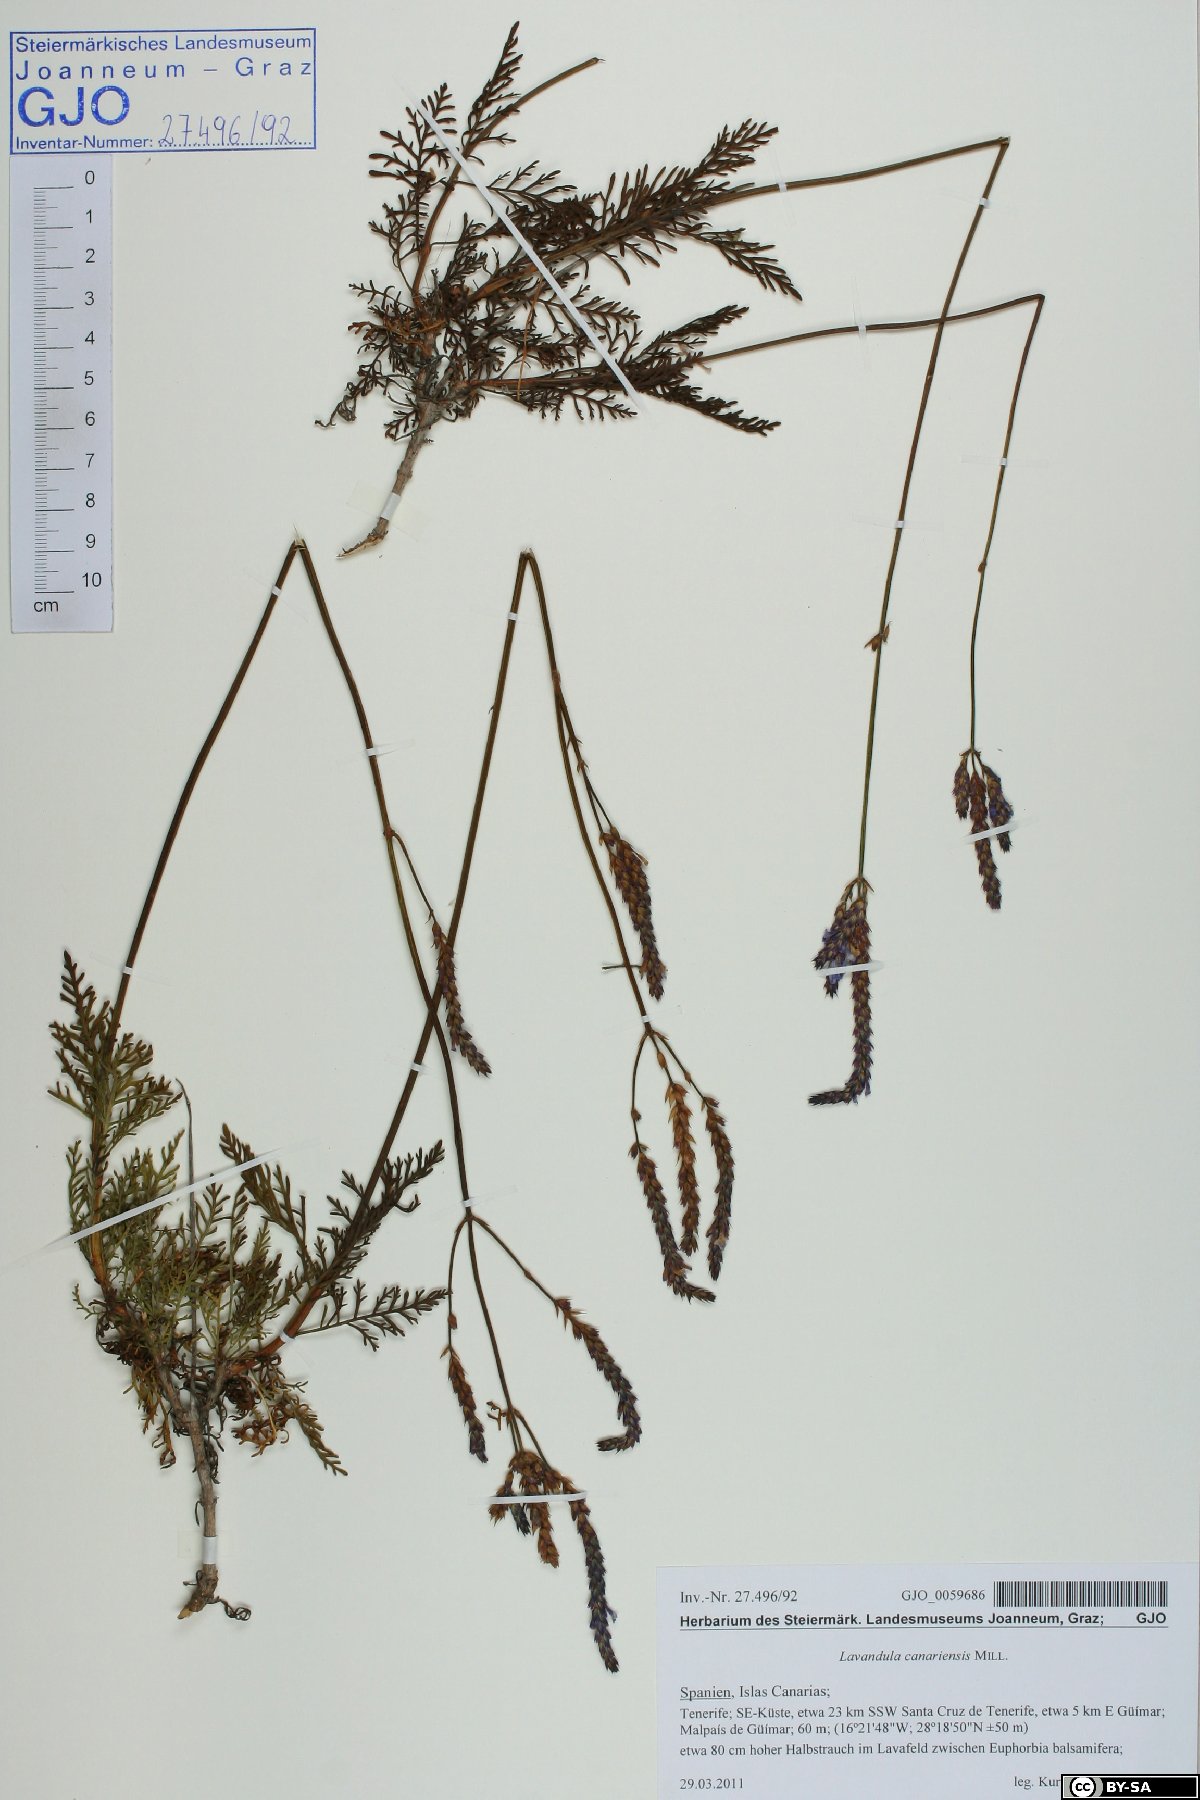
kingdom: Plantae
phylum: Tracheophyta
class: Magnoliopsida
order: Lamiales
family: Lamiaceae
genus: Lavandula
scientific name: Lavandula canariensis
